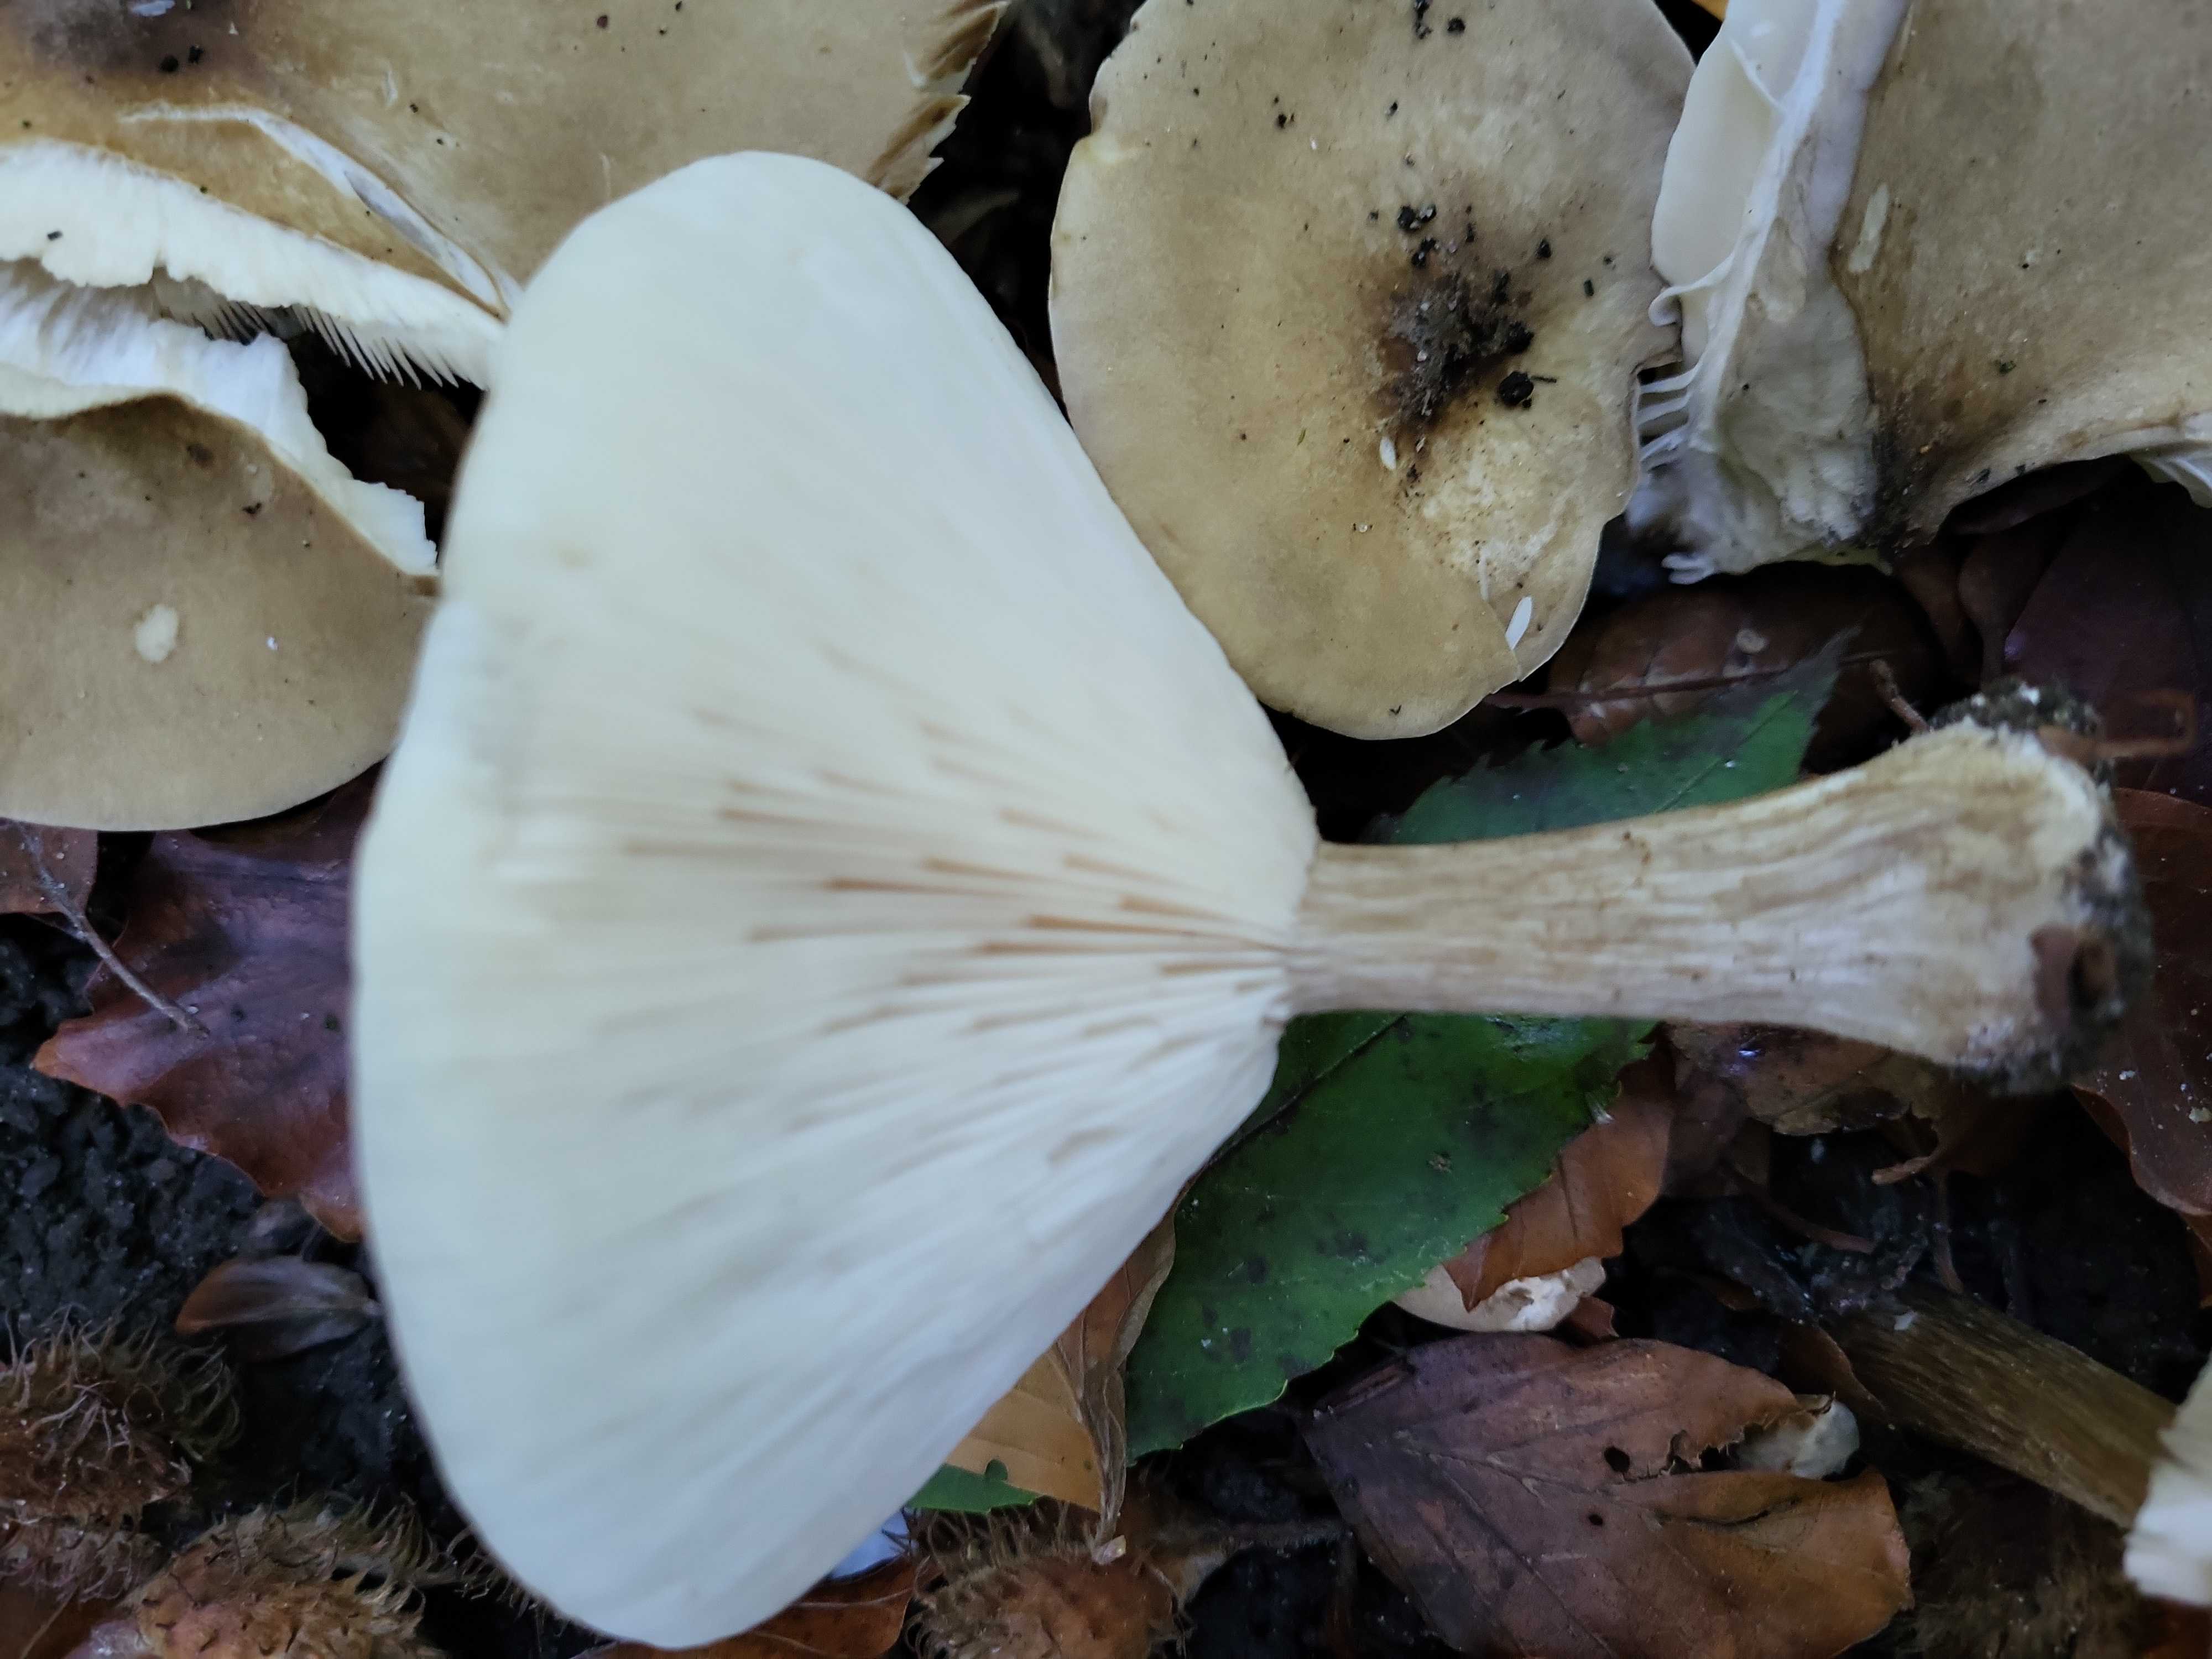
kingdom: Fungi
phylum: Basidiomycota
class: Agaricomycetes
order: Agaricales
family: Tricholomataceae
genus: Melanoleuca
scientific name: Melanoleuca grammopodia
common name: stribestokket munkehat
